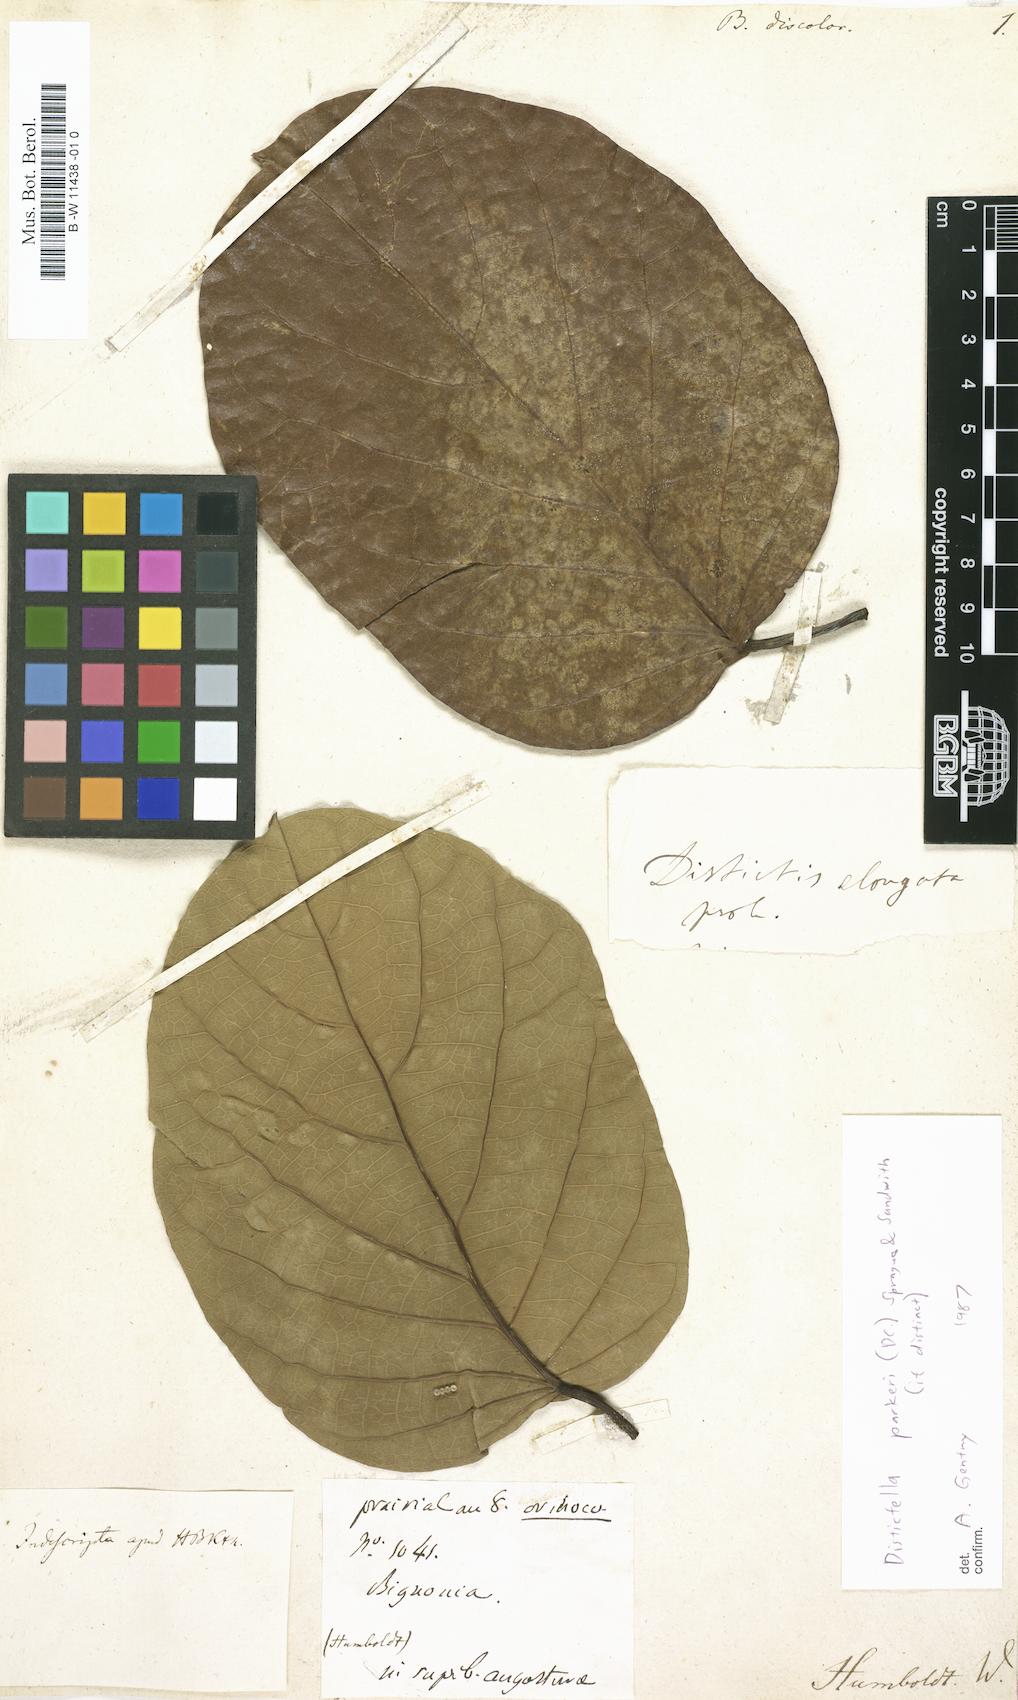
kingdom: Plantae
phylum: Tracheophyta
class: Magnoliopsida
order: Lamiales
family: Bignoniaceae
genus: Bignonia
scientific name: Bignonia discolor
